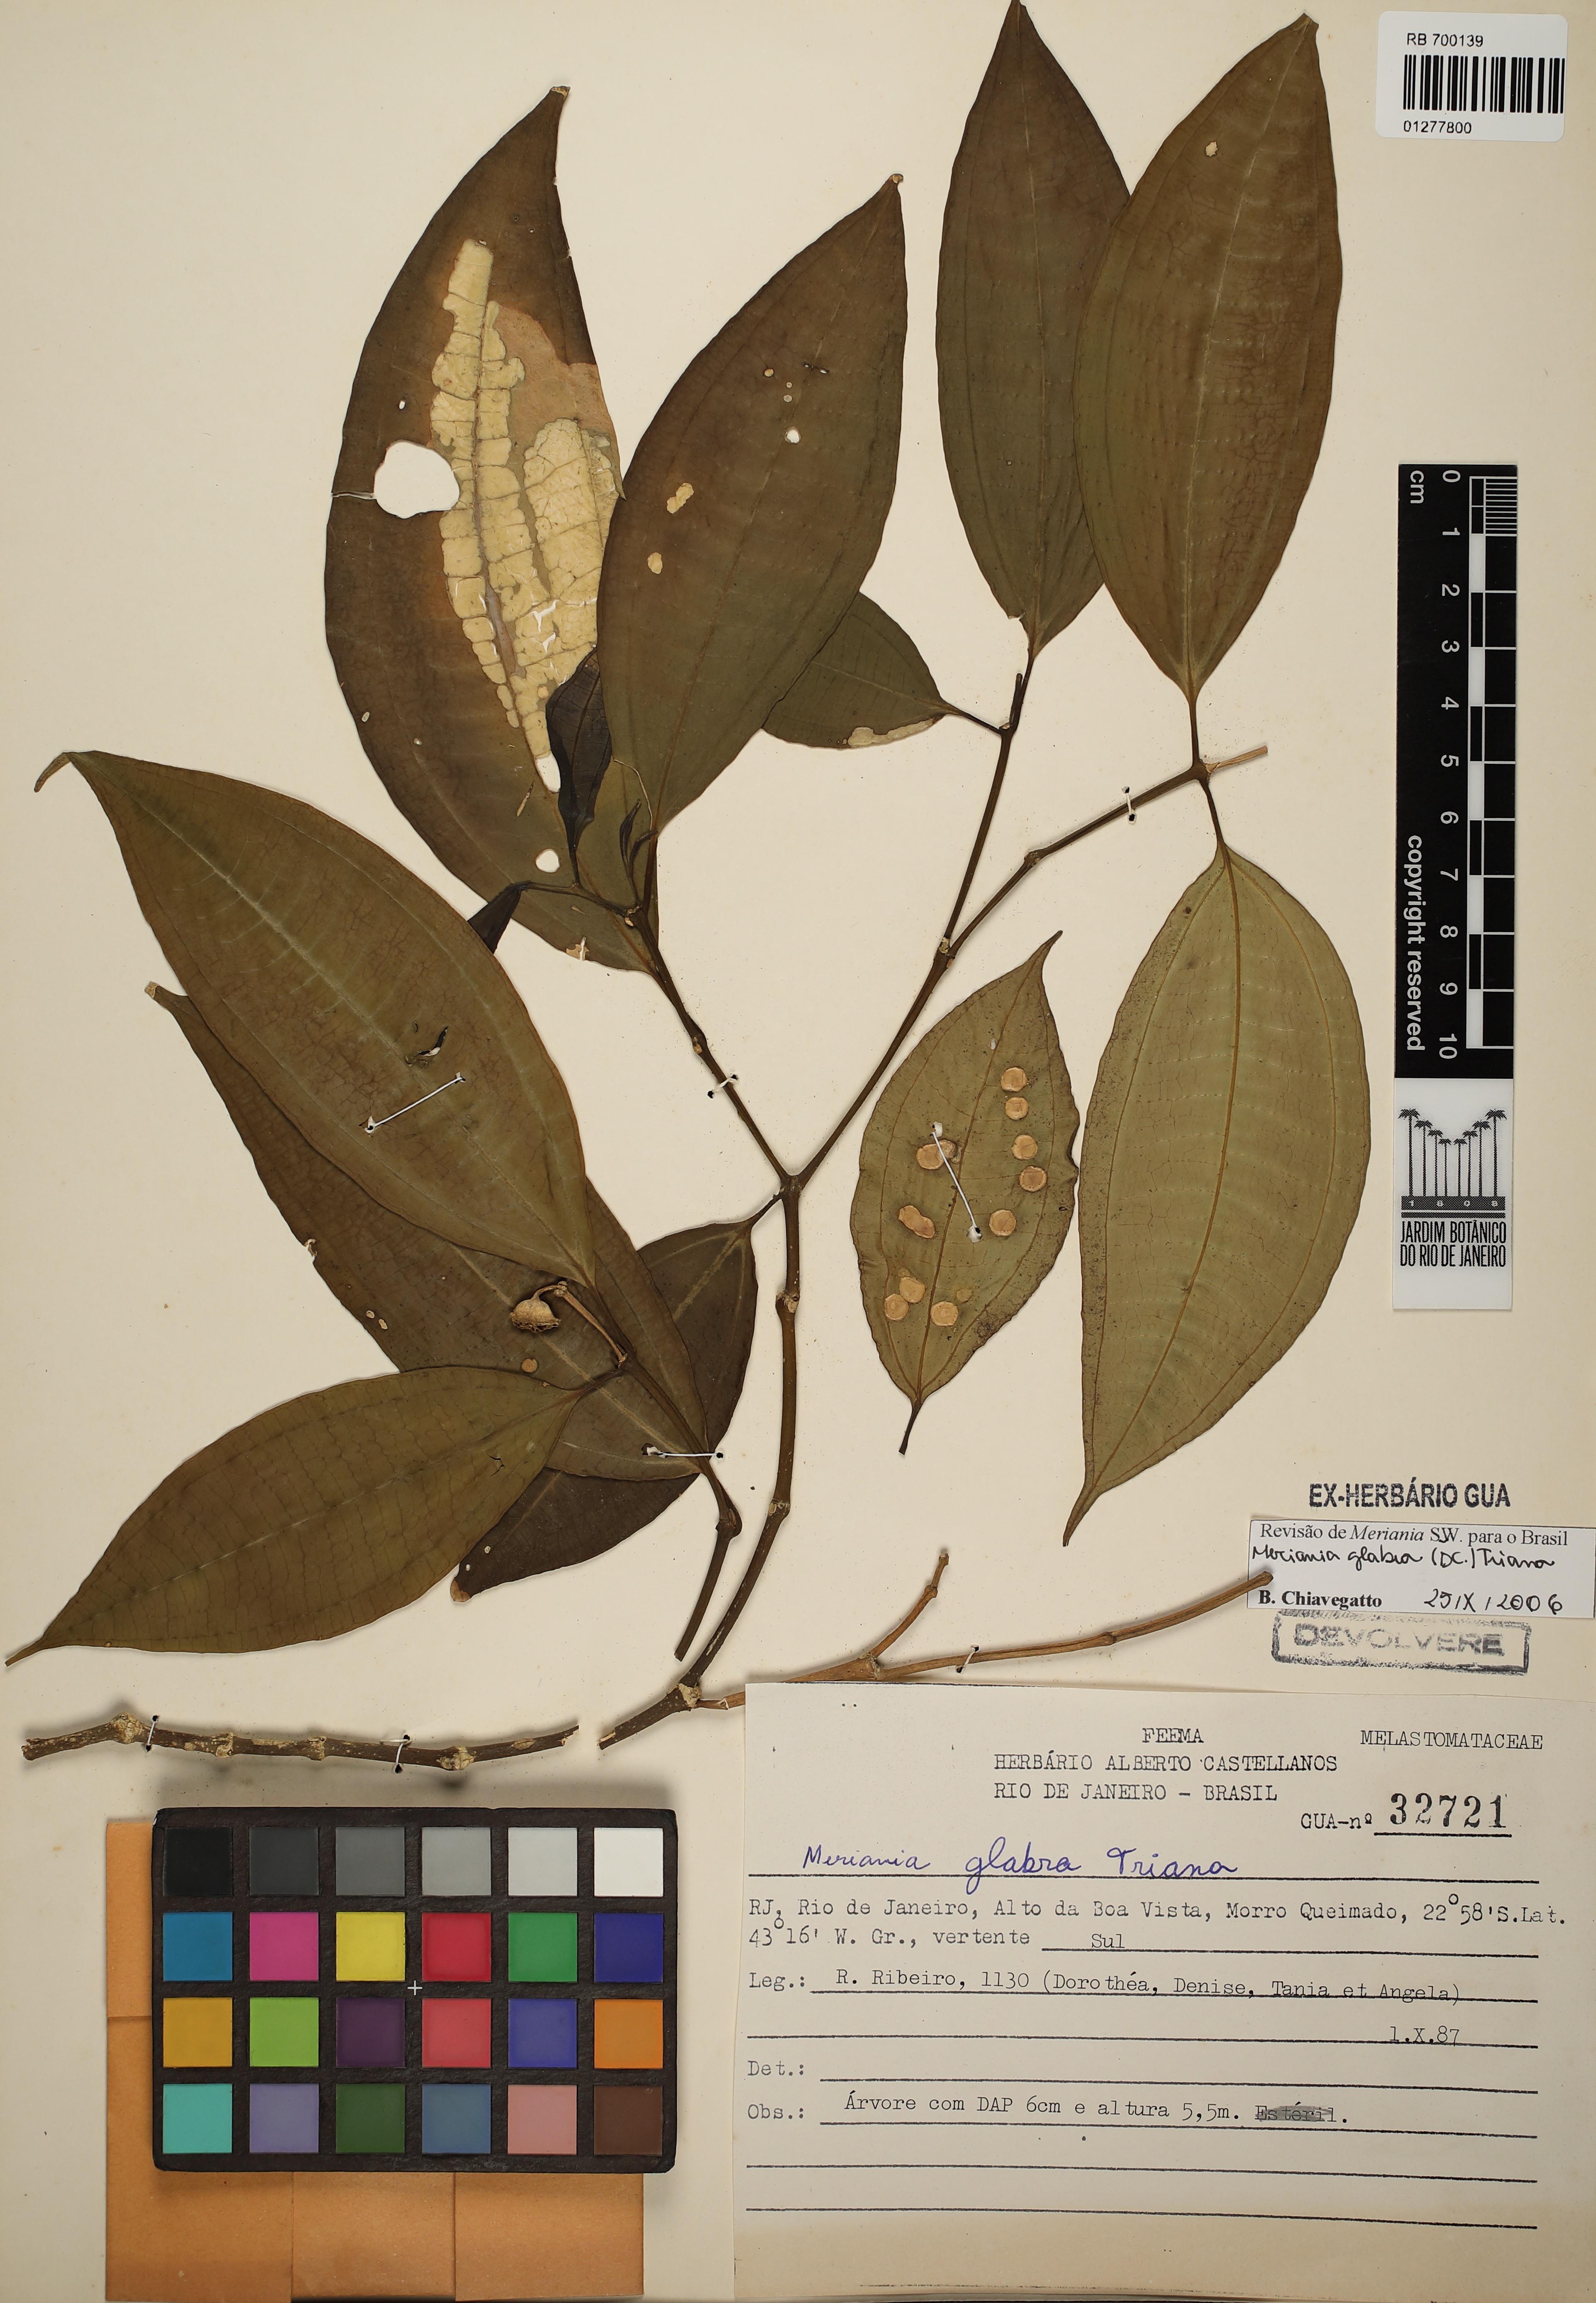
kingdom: Plantae
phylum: Tracheophyta
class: Magnoliopsida
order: Myrtales
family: Melastomataceae
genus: Meriania
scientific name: Meriania glabra
